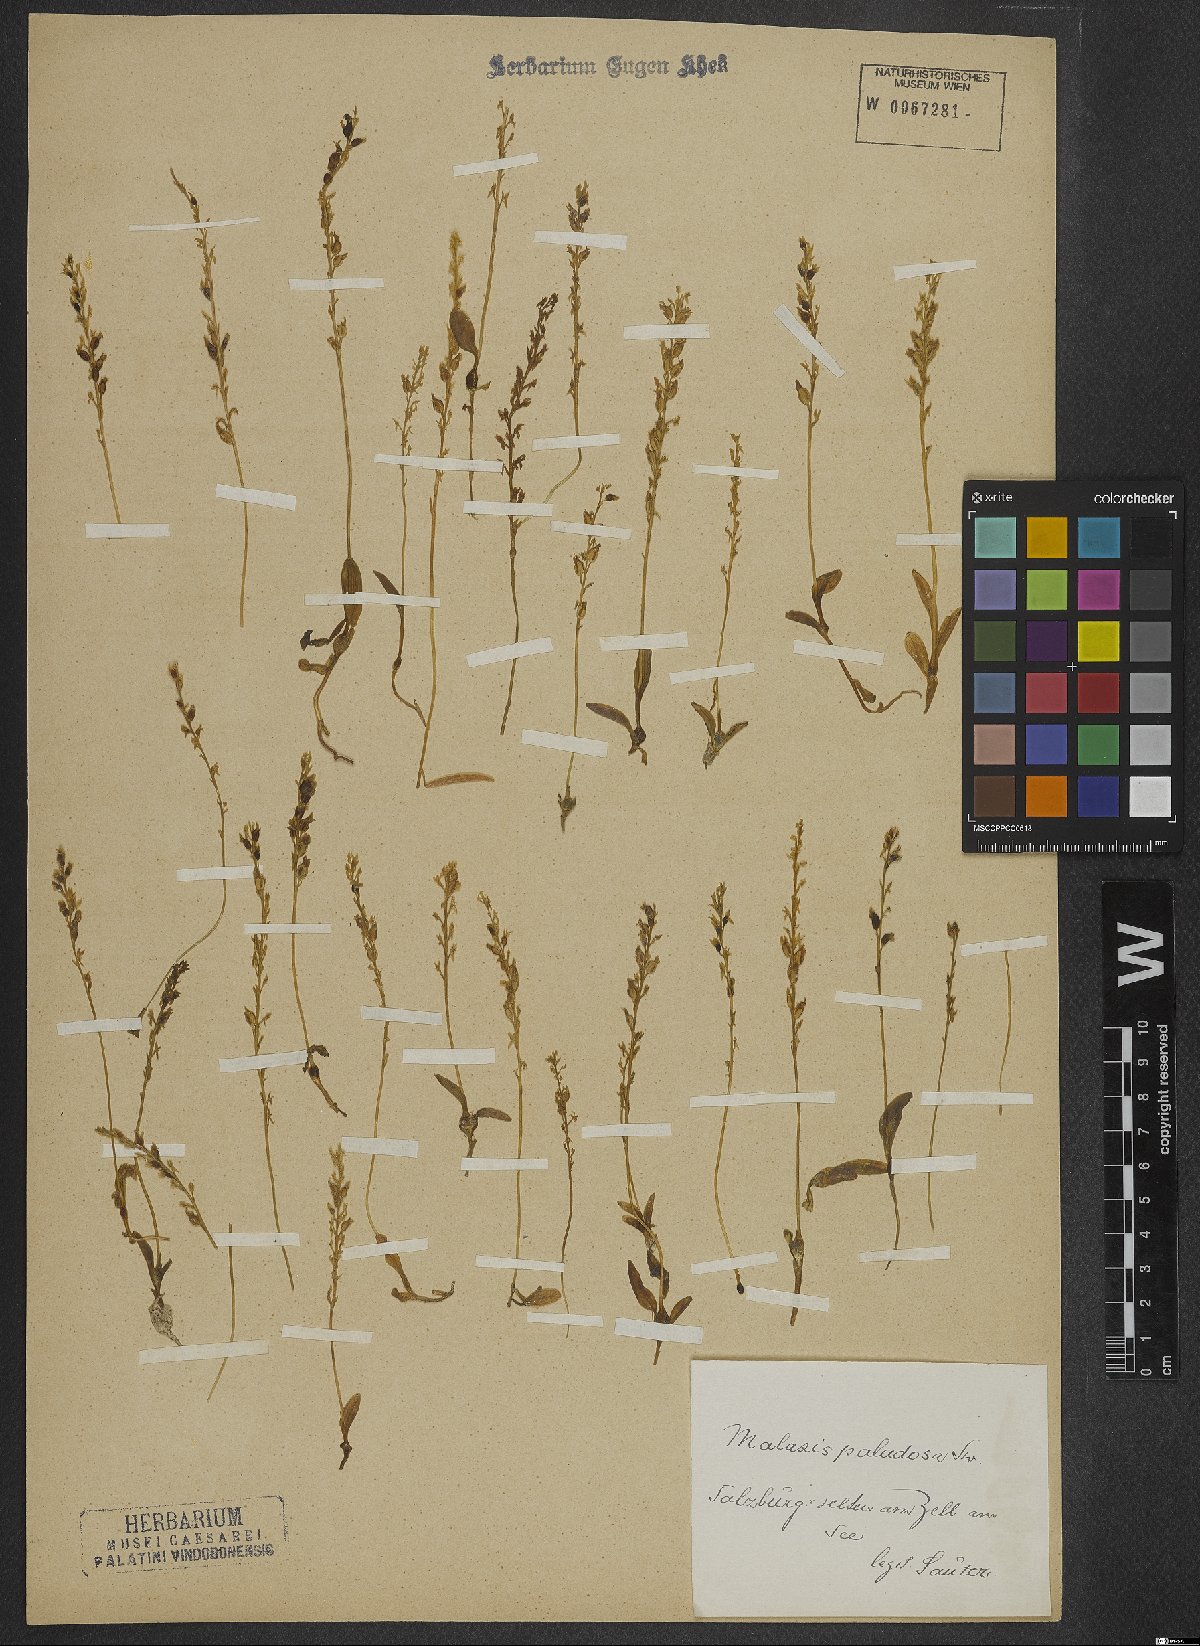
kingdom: Plantae
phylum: Tracheophyta
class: Liliopsida
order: Asparagales
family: Orchidaceae
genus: Hammarbya
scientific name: Hammarbya paludosa
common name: Bog orchid
